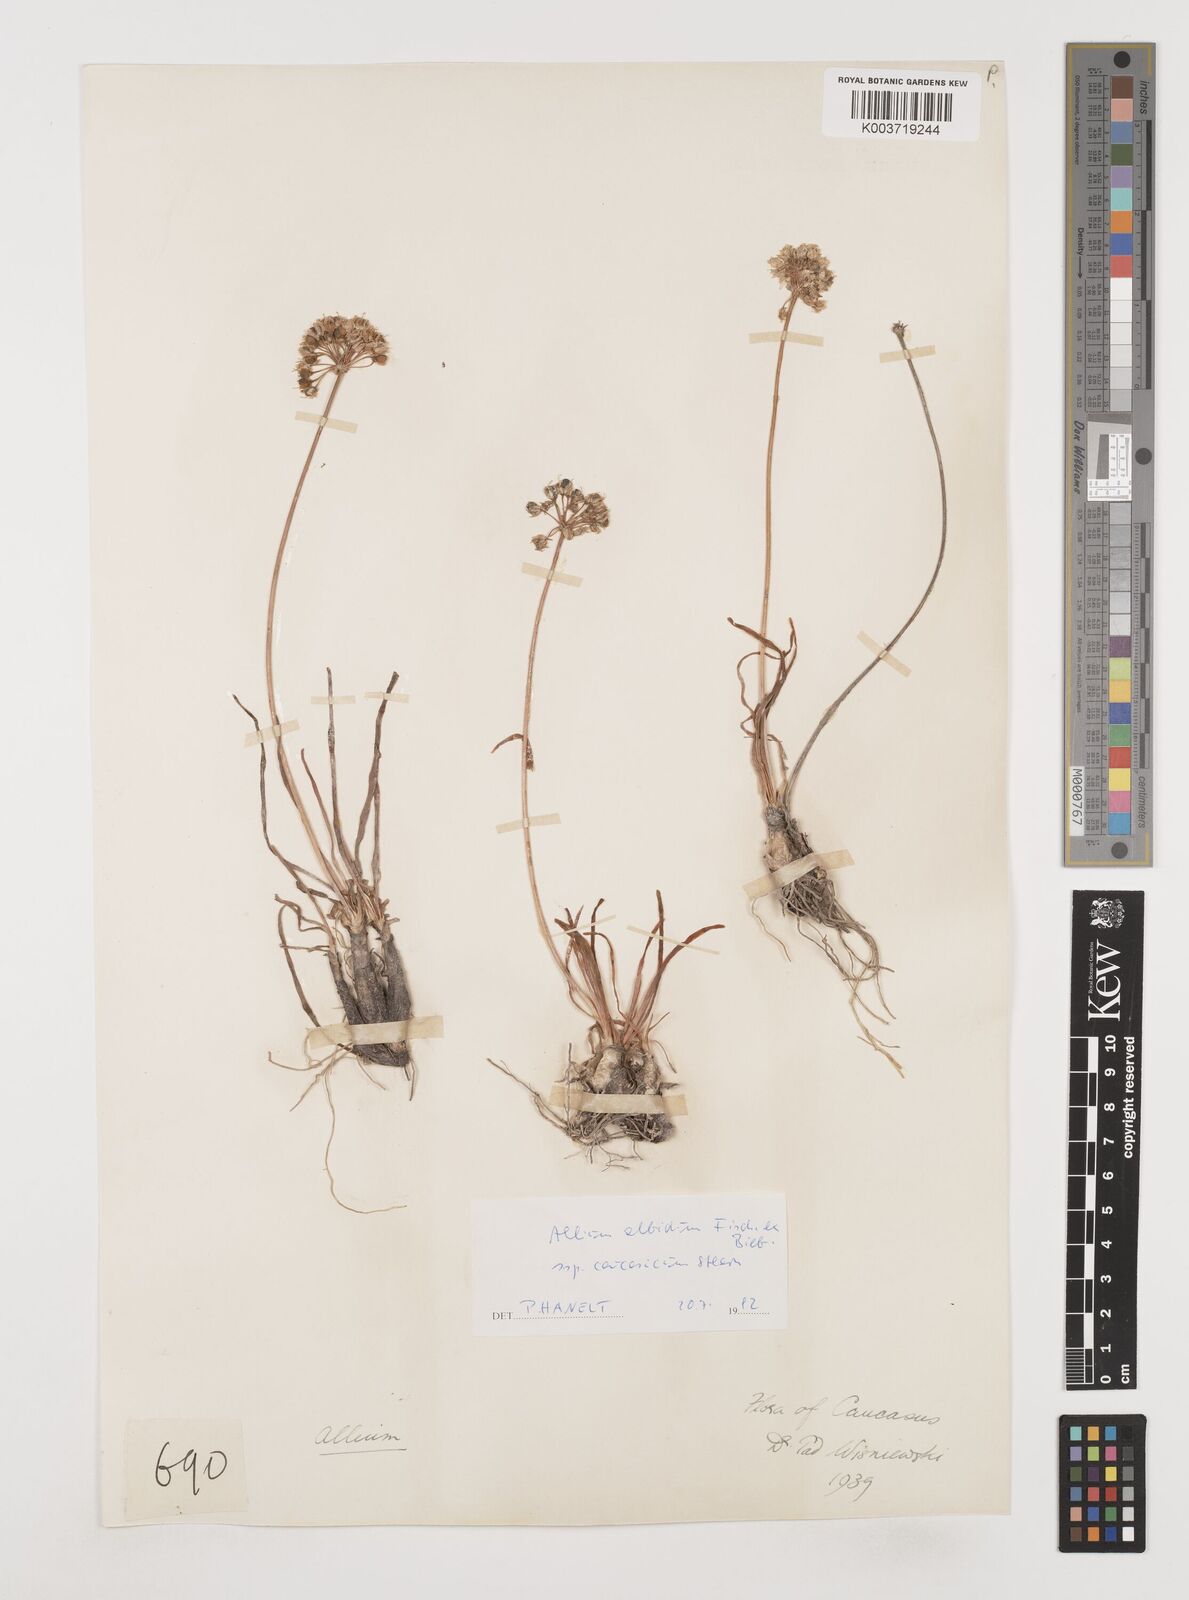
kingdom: Plantae
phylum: Tracheophyta
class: Liliopsida
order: Asparagales
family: Amaryllidaceae
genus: Allium
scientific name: Allium denudatum
